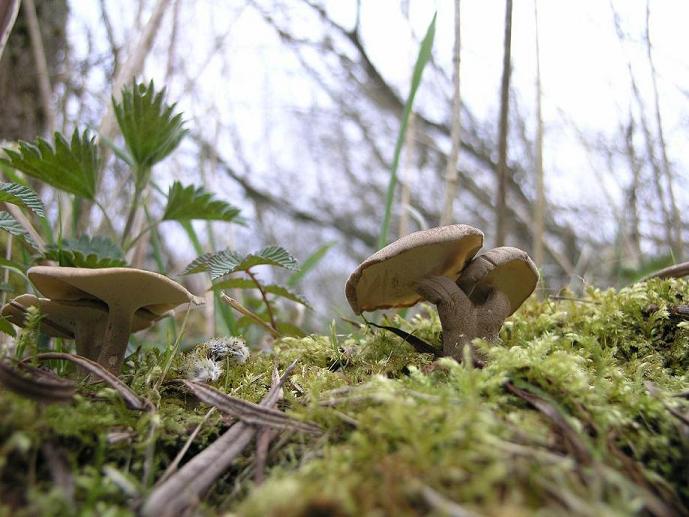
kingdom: Fungi
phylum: Basidiomycota
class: Agaricomycetes
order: Polyporales
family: Polyporaceae
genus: Lentinus
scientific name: Lentinus substrictus
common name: forårs-stilkporesvamp
